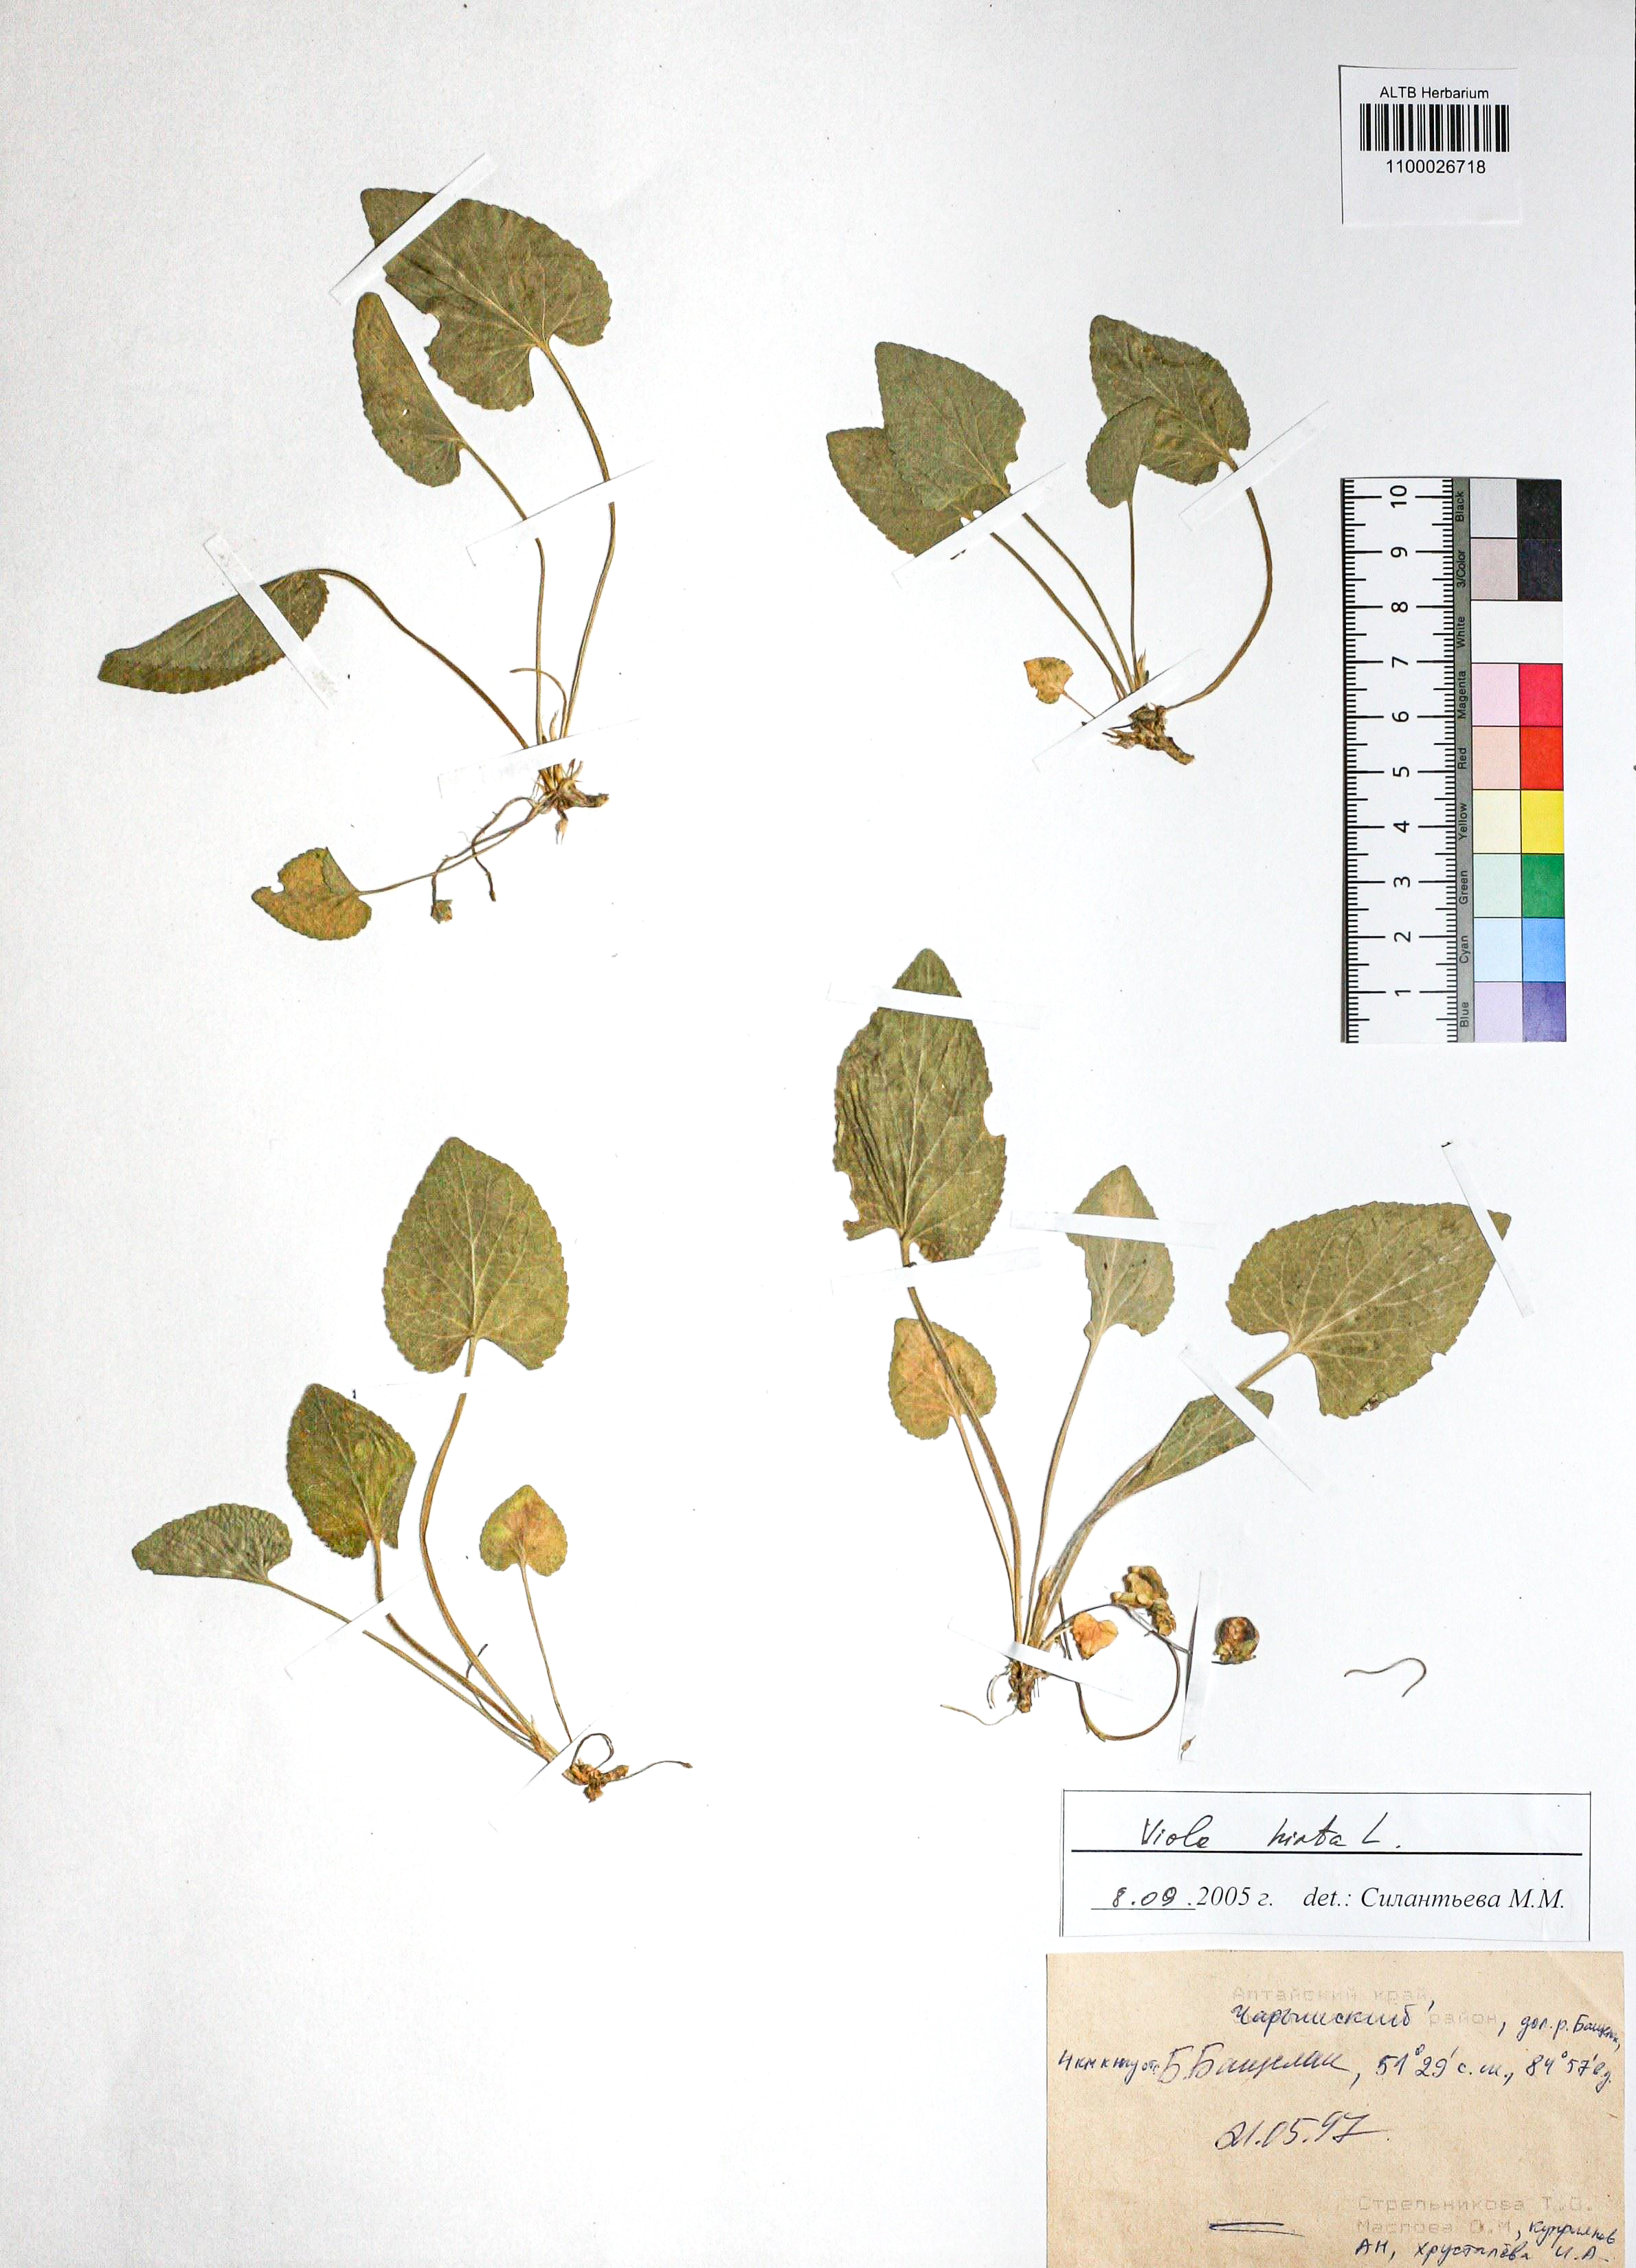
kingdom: Plantae
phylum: Tracheophyta
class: Magnoliopsida
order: Malpighiales
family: Violaceae
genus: Viola
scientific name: Viola hirta
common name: Hairy violet
